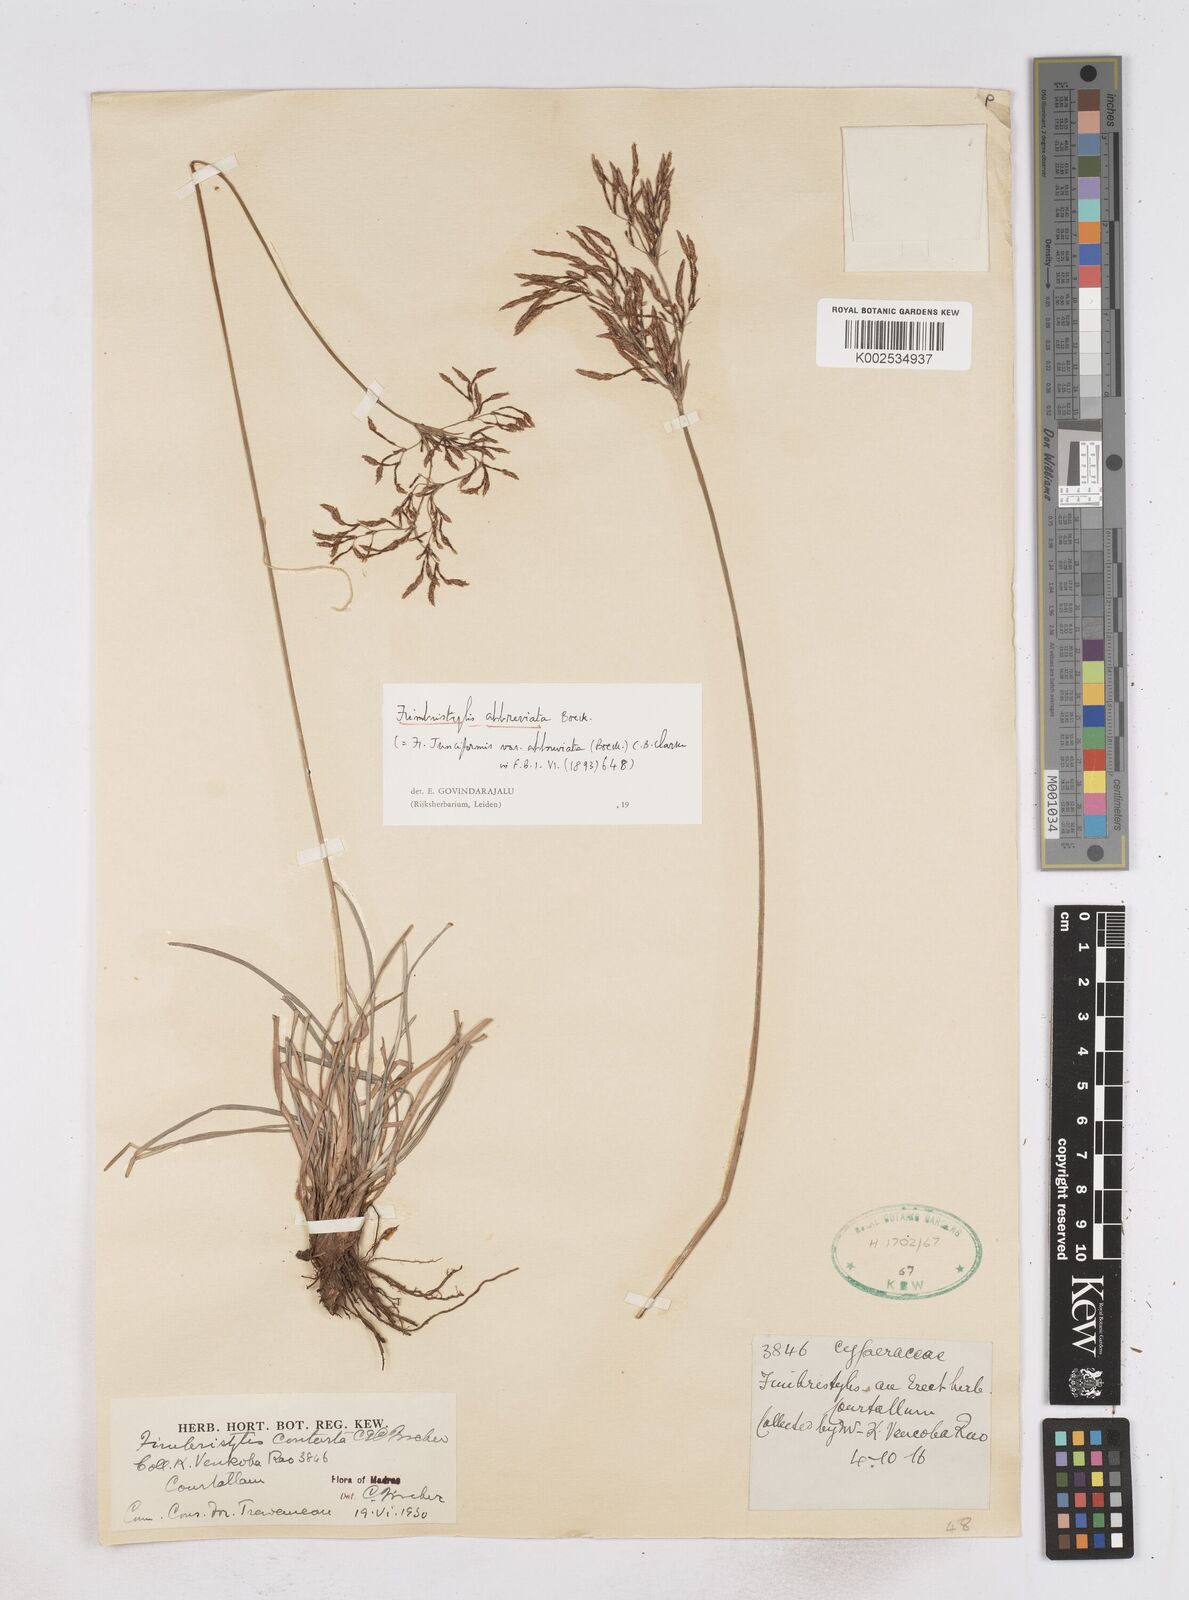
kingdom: Plantae
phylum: Tracheophyta
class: Liliopsida
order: Poales
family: Cyperaceae
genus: Fimbristylis
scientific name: Fimbristylis falcata
